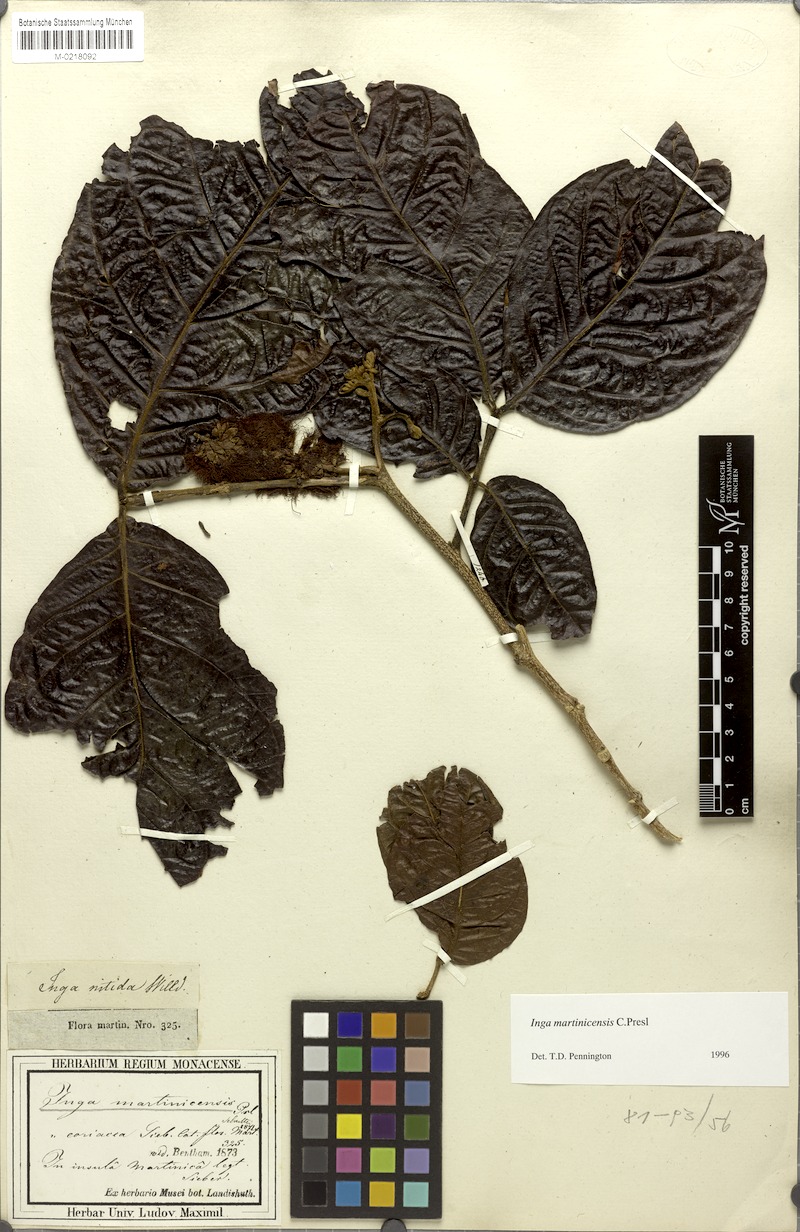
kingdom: Plantae
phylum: Tracheophyta
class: Magnoliopsida
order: Fabales
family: Fabaceae
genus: Inga
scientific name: Inga martinicensis
